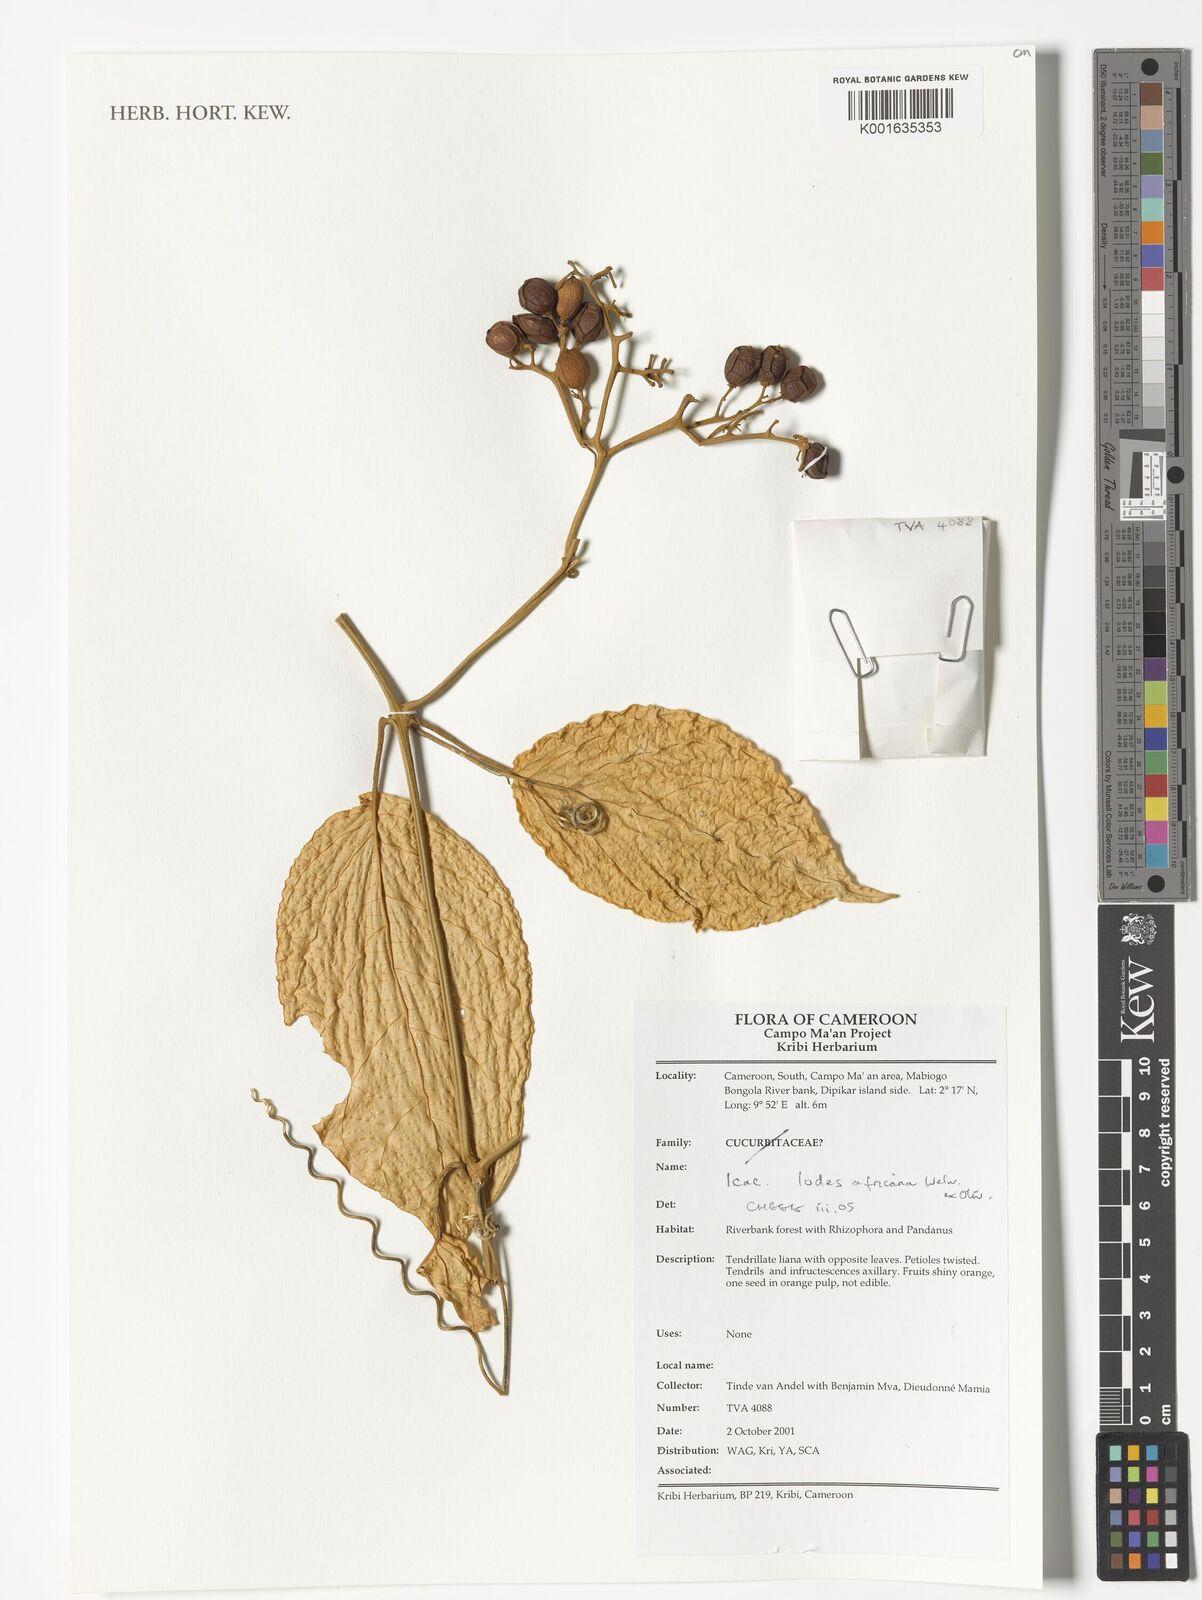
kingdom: Plantae
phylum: Tracheophyta
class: Magnoliopsida
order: Icacinales
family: Icacinaceae
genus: Iodes
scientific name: Iodes africana
